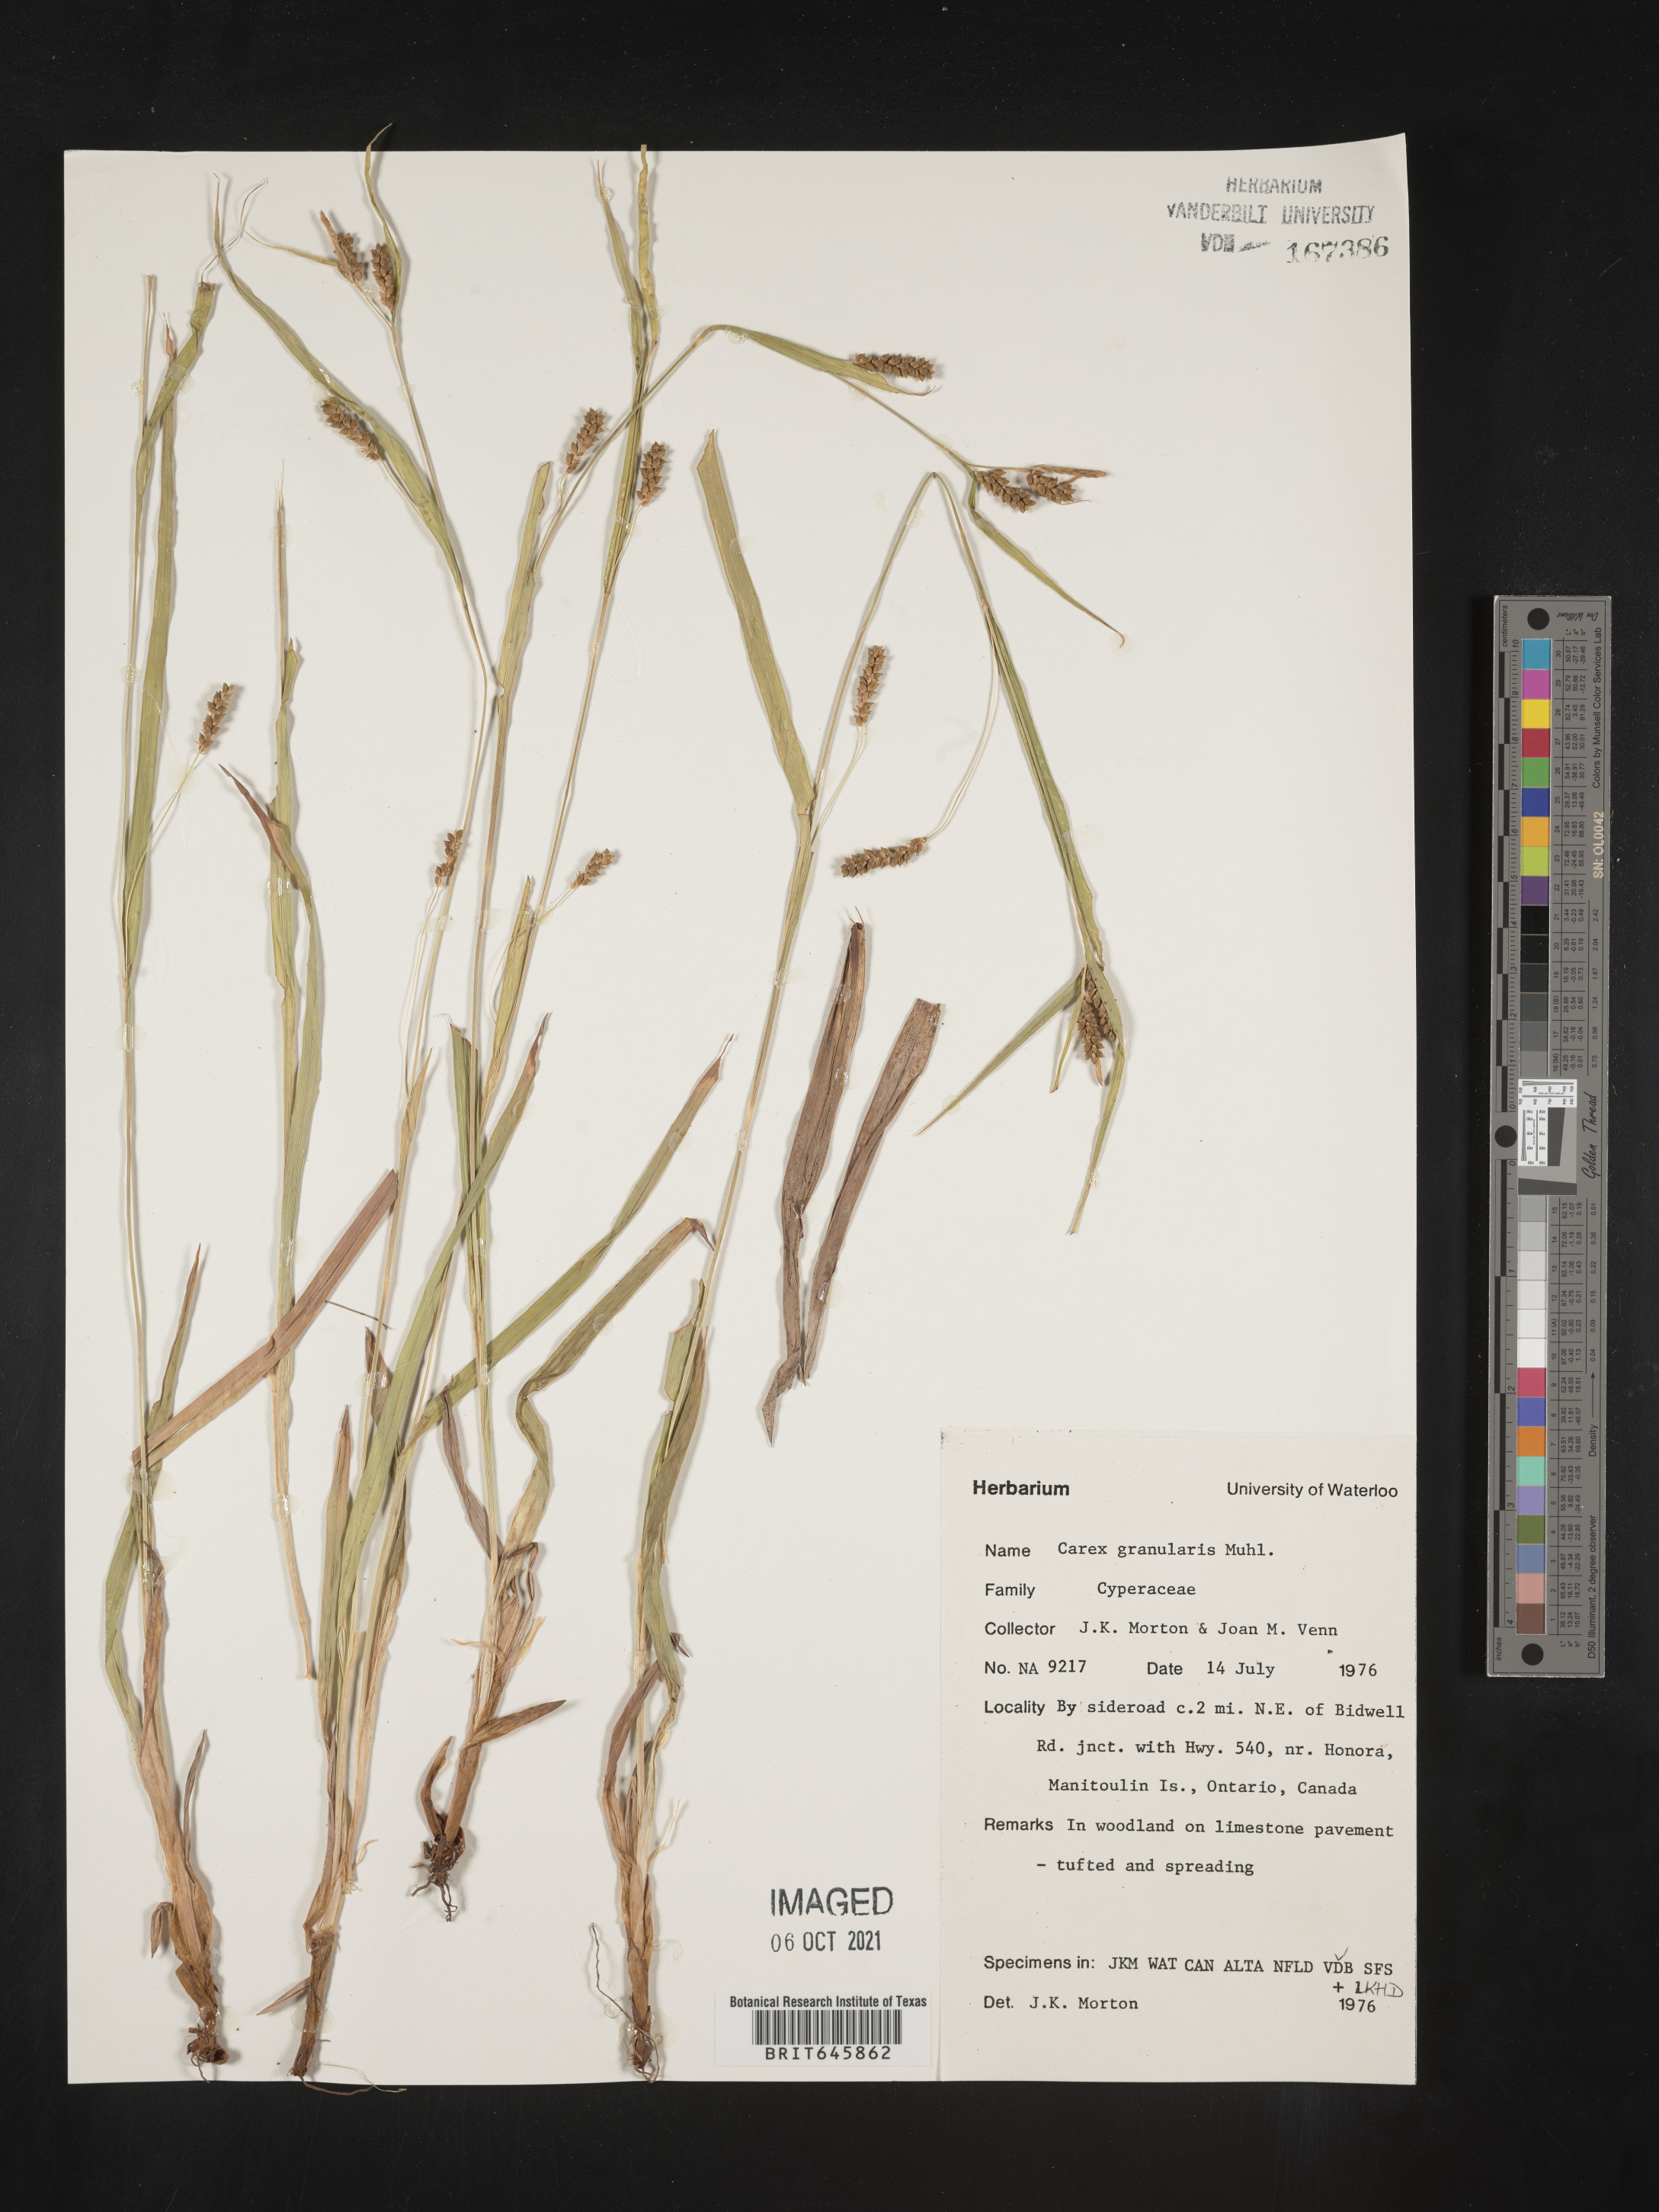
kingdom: Plantae
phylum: Tracheophyta
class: Liliopsida
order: Poales
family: Cyperaceae
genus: Carex
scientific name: Carex granularis
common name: Granular sedge
